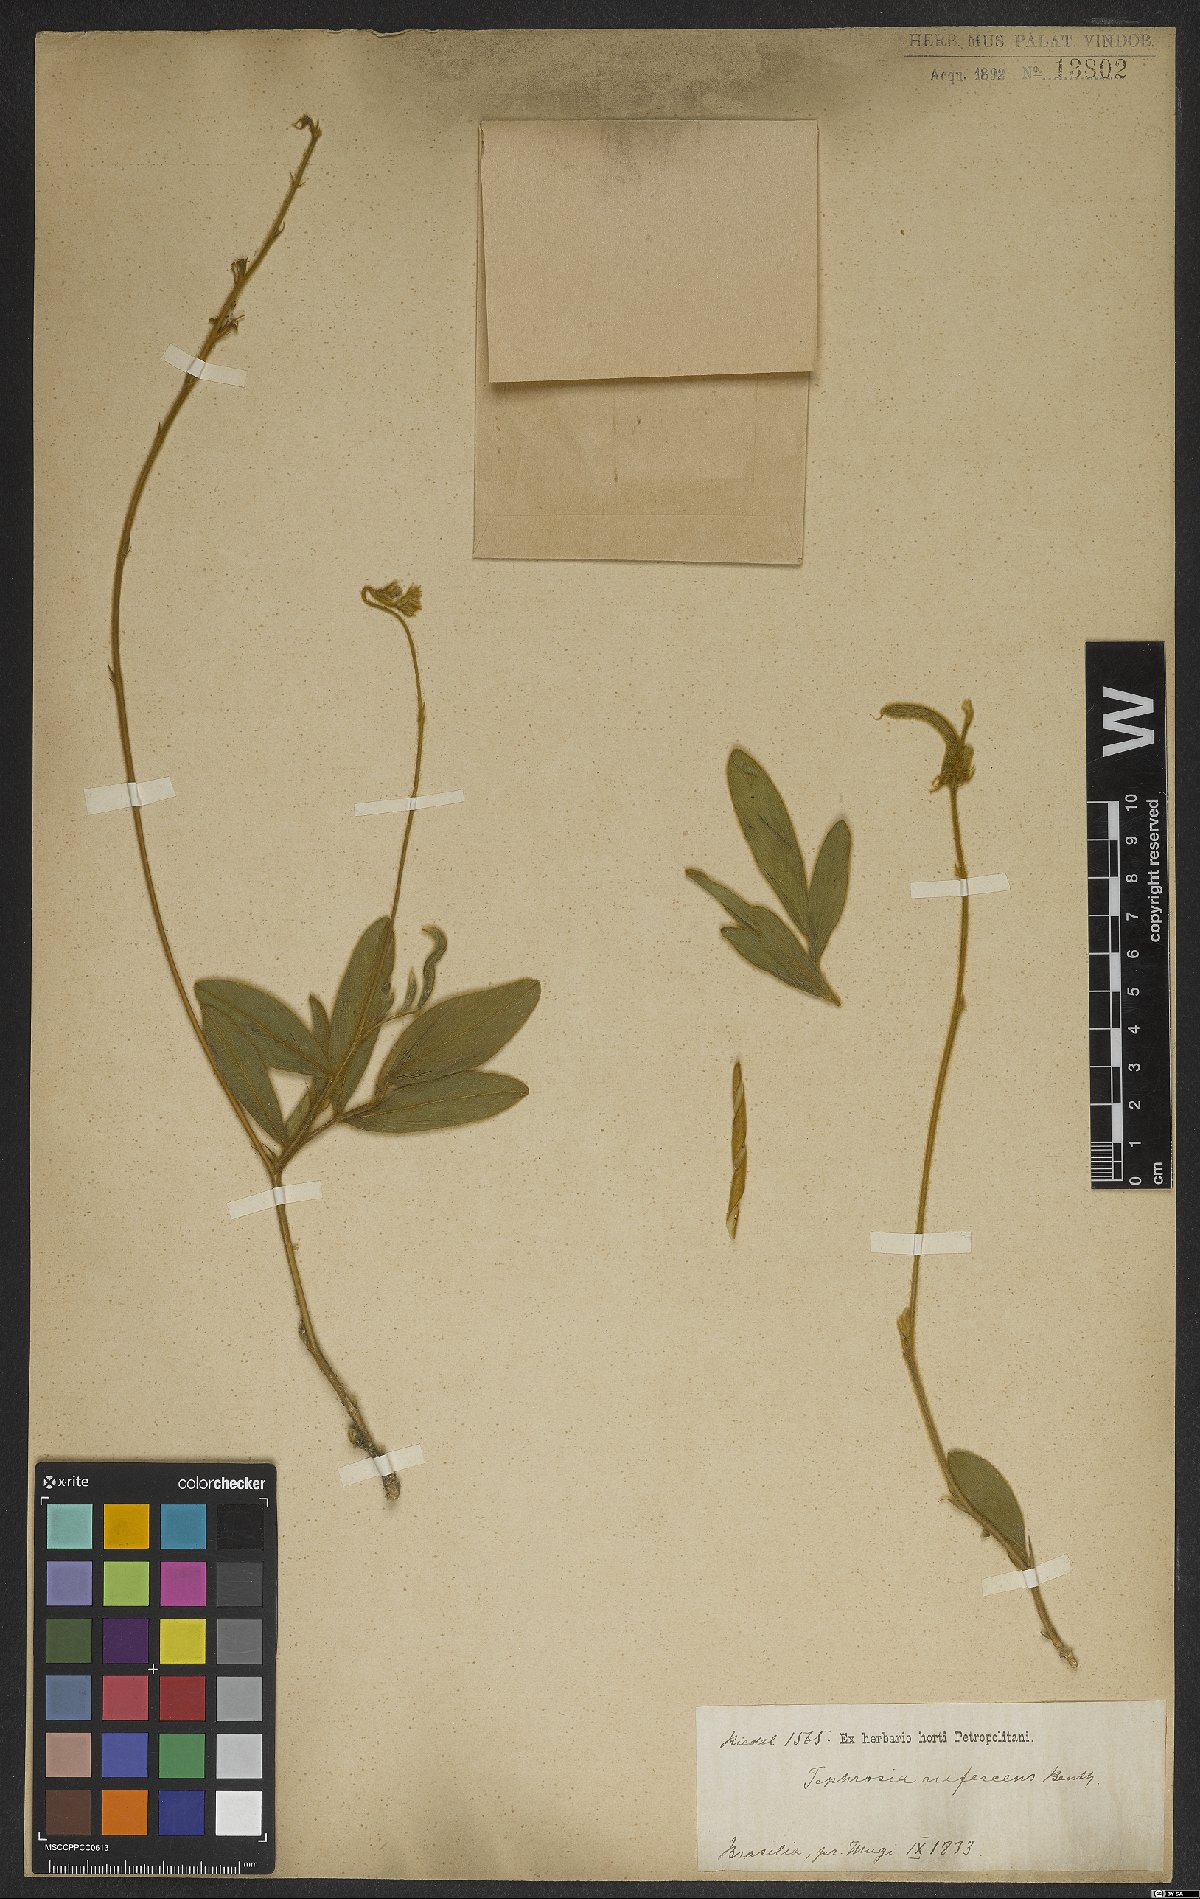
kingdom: Plantae
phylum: Tracheophyta
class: Magnoliopsida
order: Fabales
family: Fabaceae
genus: Tephrosia
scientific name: Tephrosia adunca
